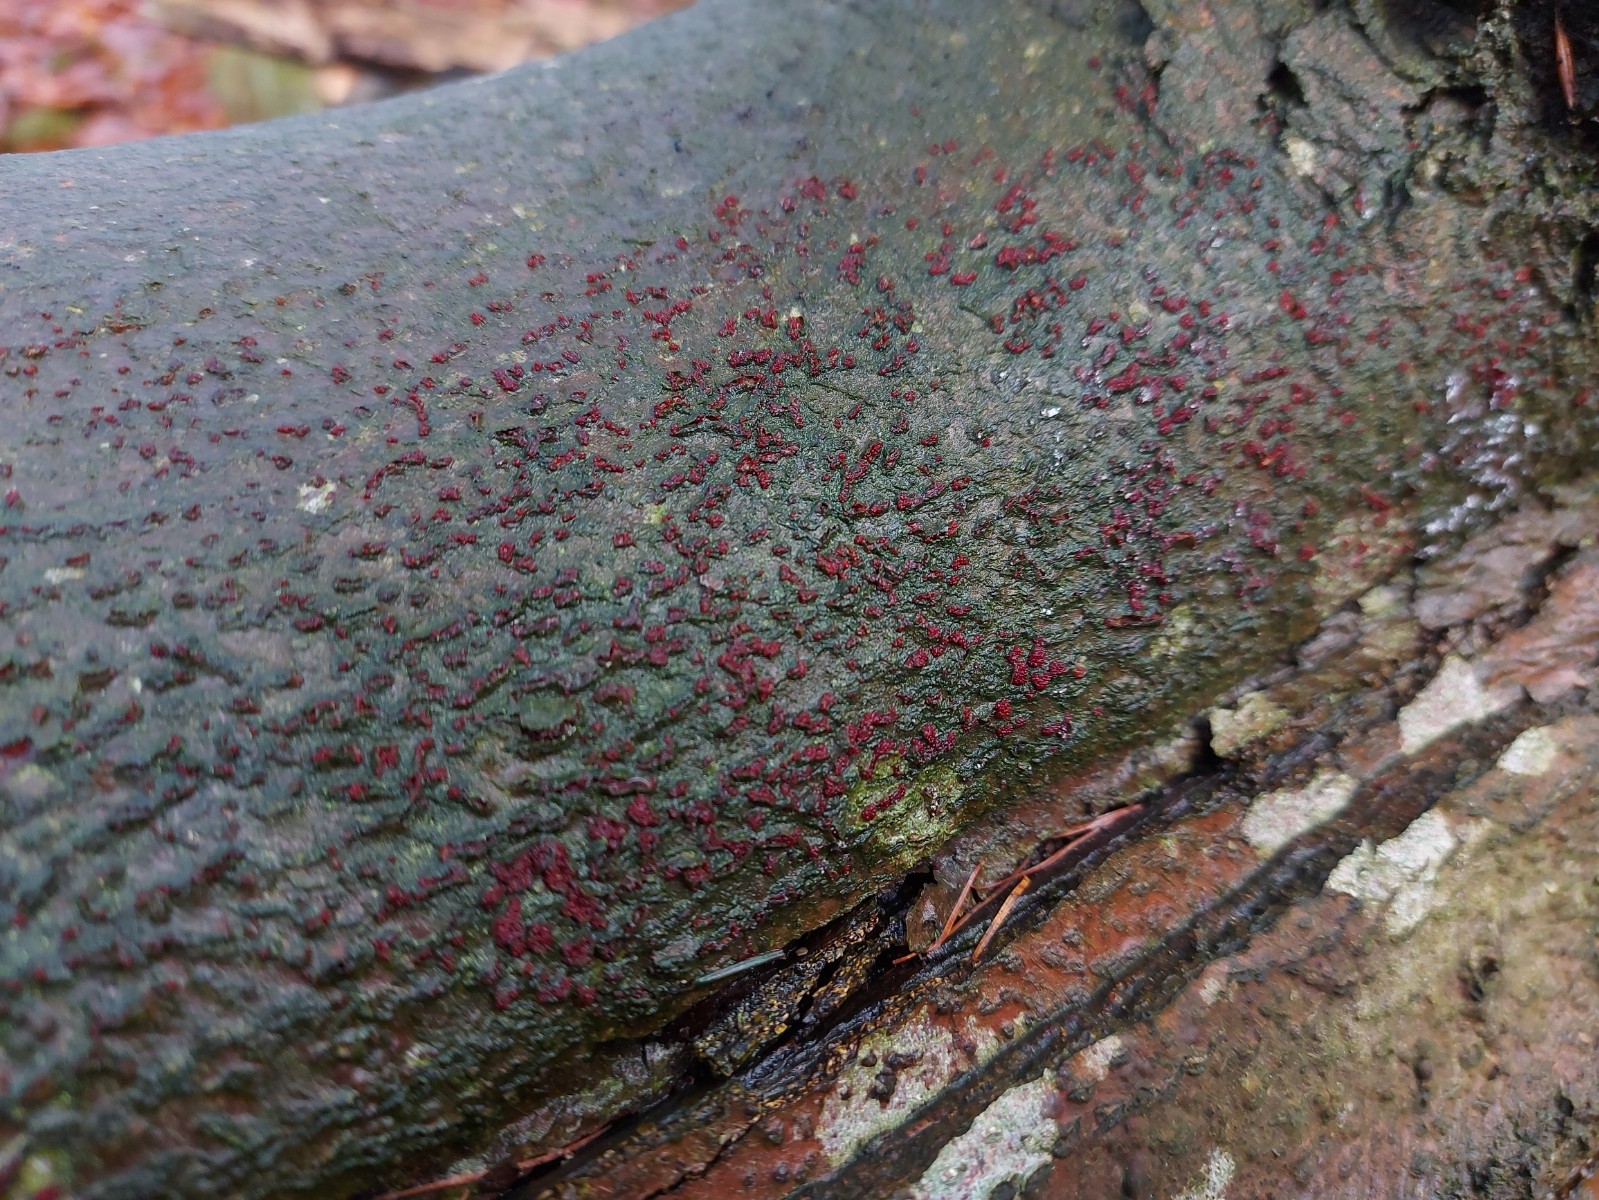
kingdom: Fungi
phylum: Ascomycota
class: Sordariomycetes
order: Hypocreales
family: Nectriaceae
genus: Neonectria
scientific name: Neonectria coccinea
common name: bøgebark-cinnobersvamp
